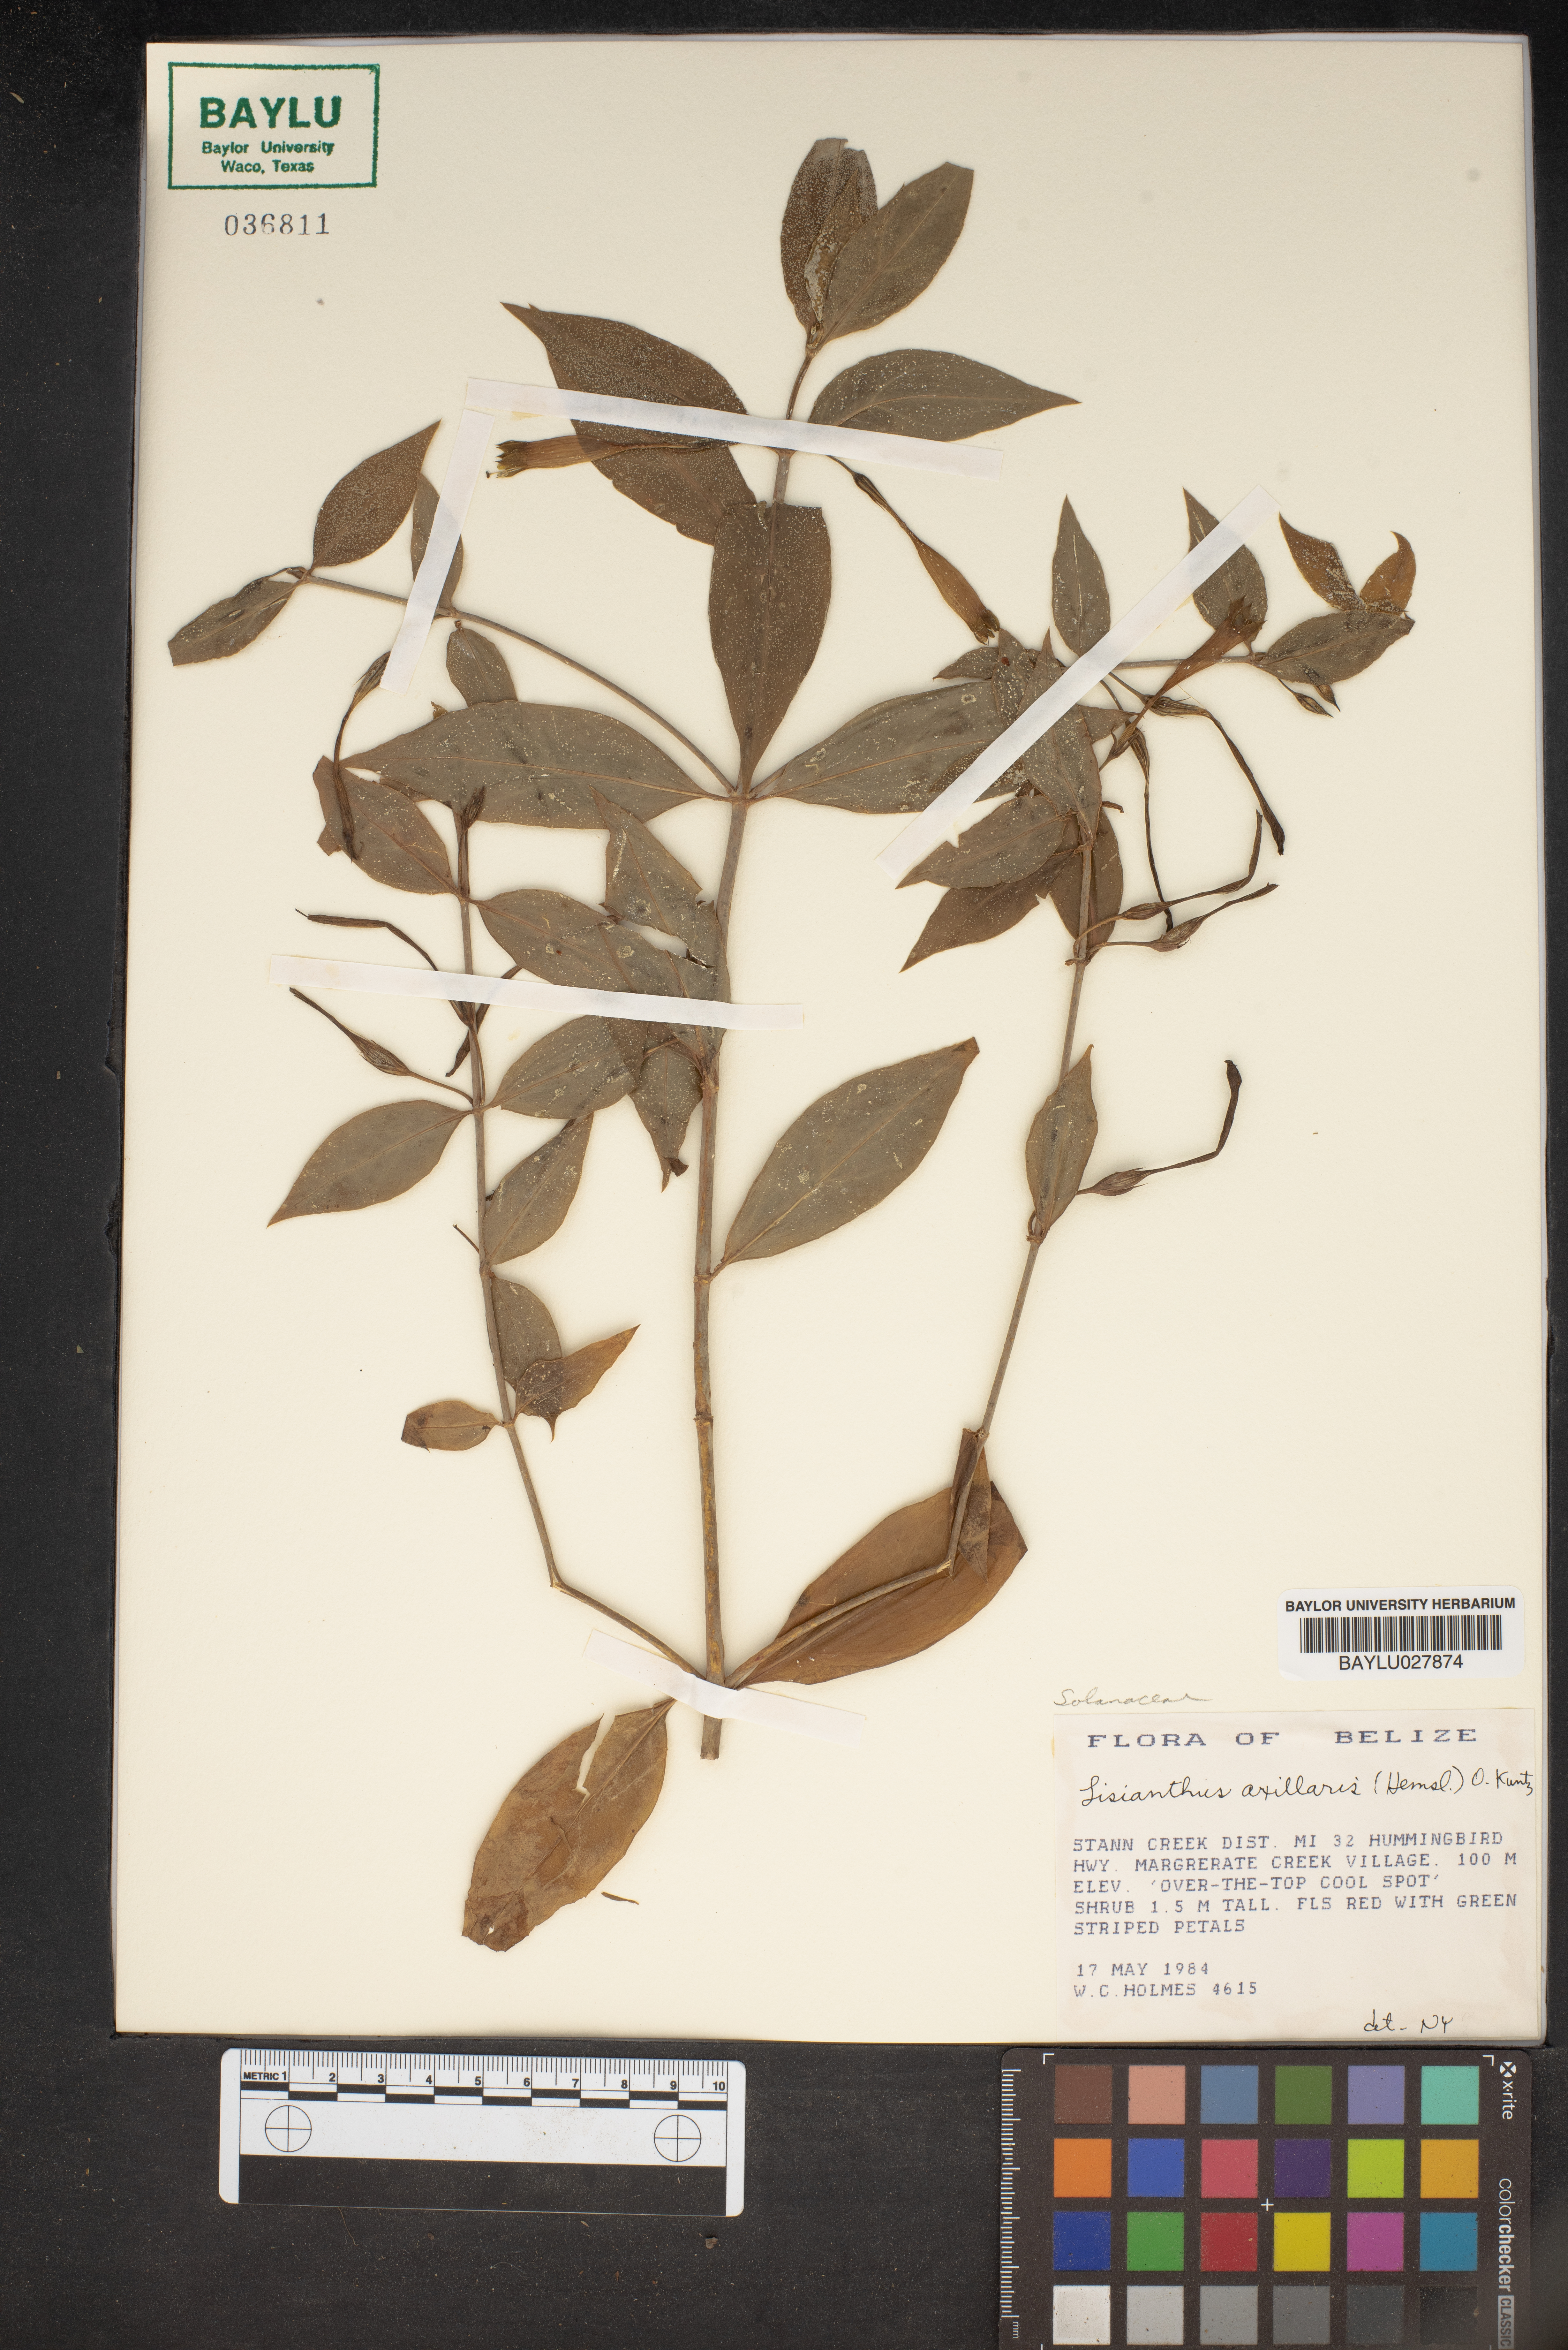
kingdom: Plantae
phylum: Tracheophyta
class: Magnoliopsida
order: Gentianales
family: Gentianaceae
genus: Lisianthus
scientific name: Lisianthus axillaris
